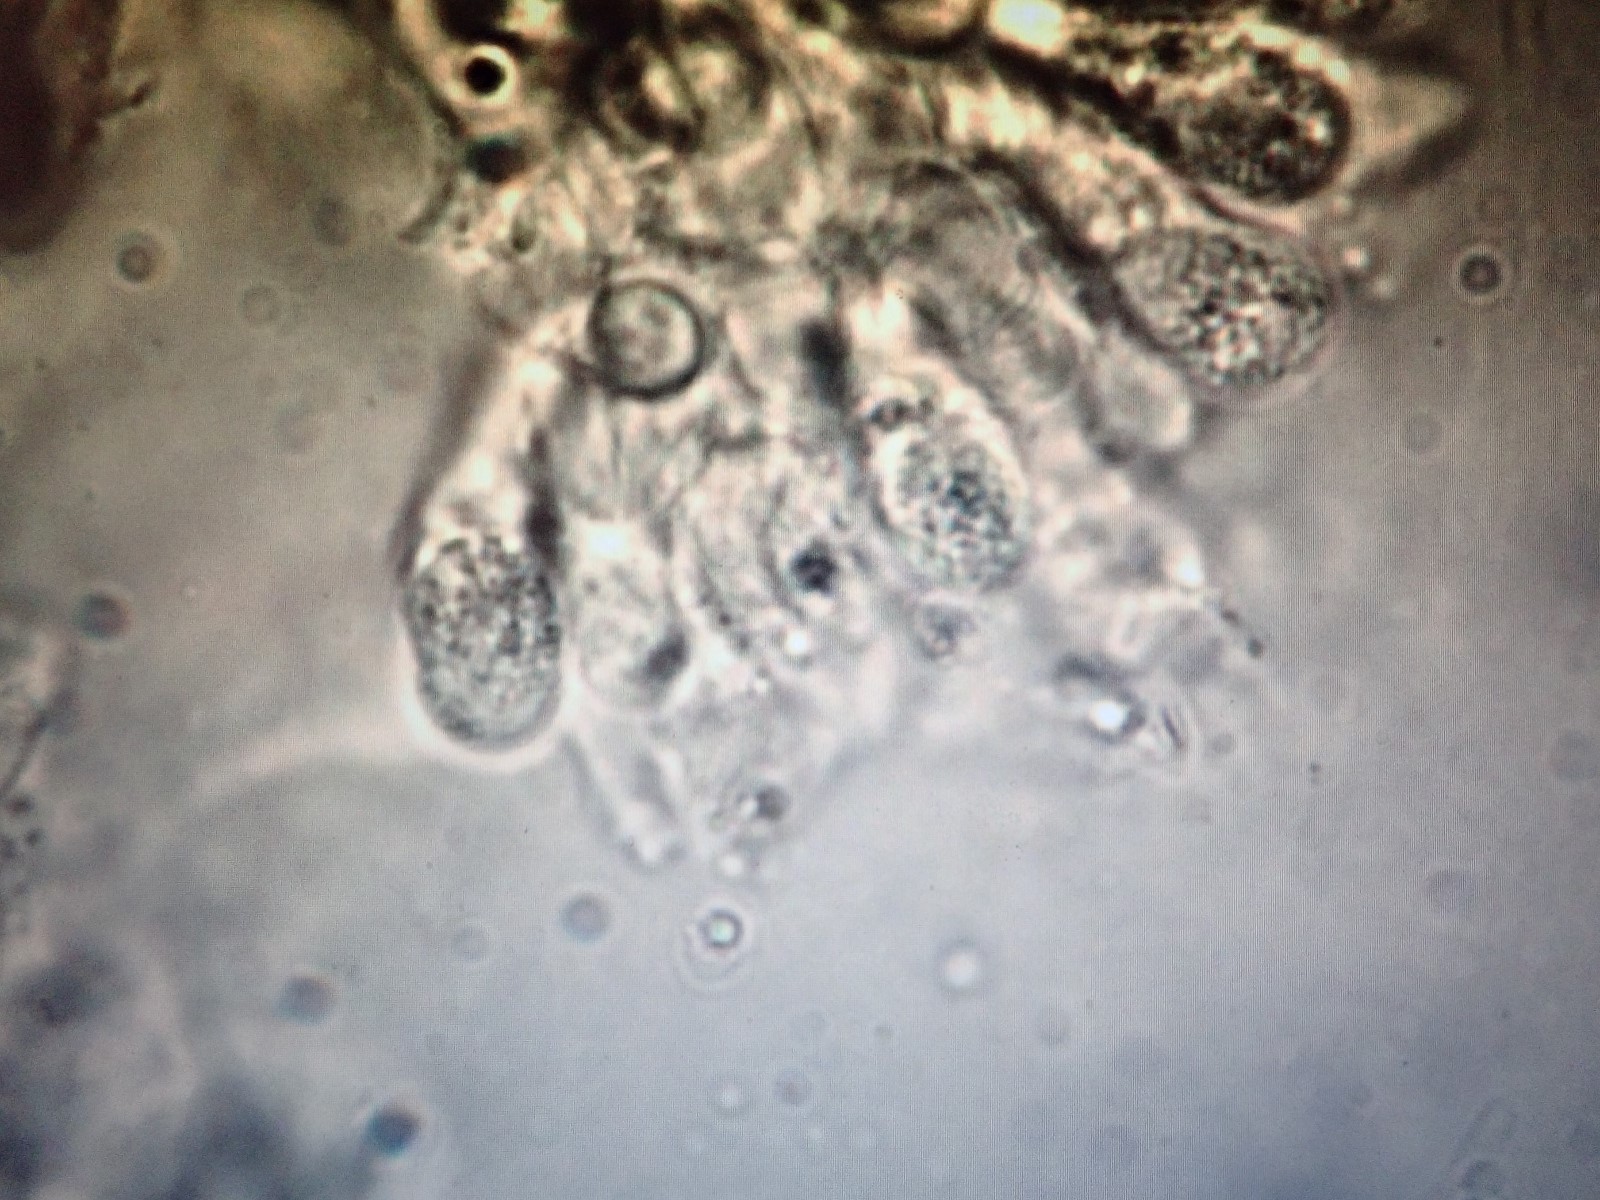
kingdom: Fungi
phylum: Basidiomycota
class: Agaricomycetes
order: Agaricales
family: Mycenaceae
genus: Mycena
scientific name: Mycena crocata
